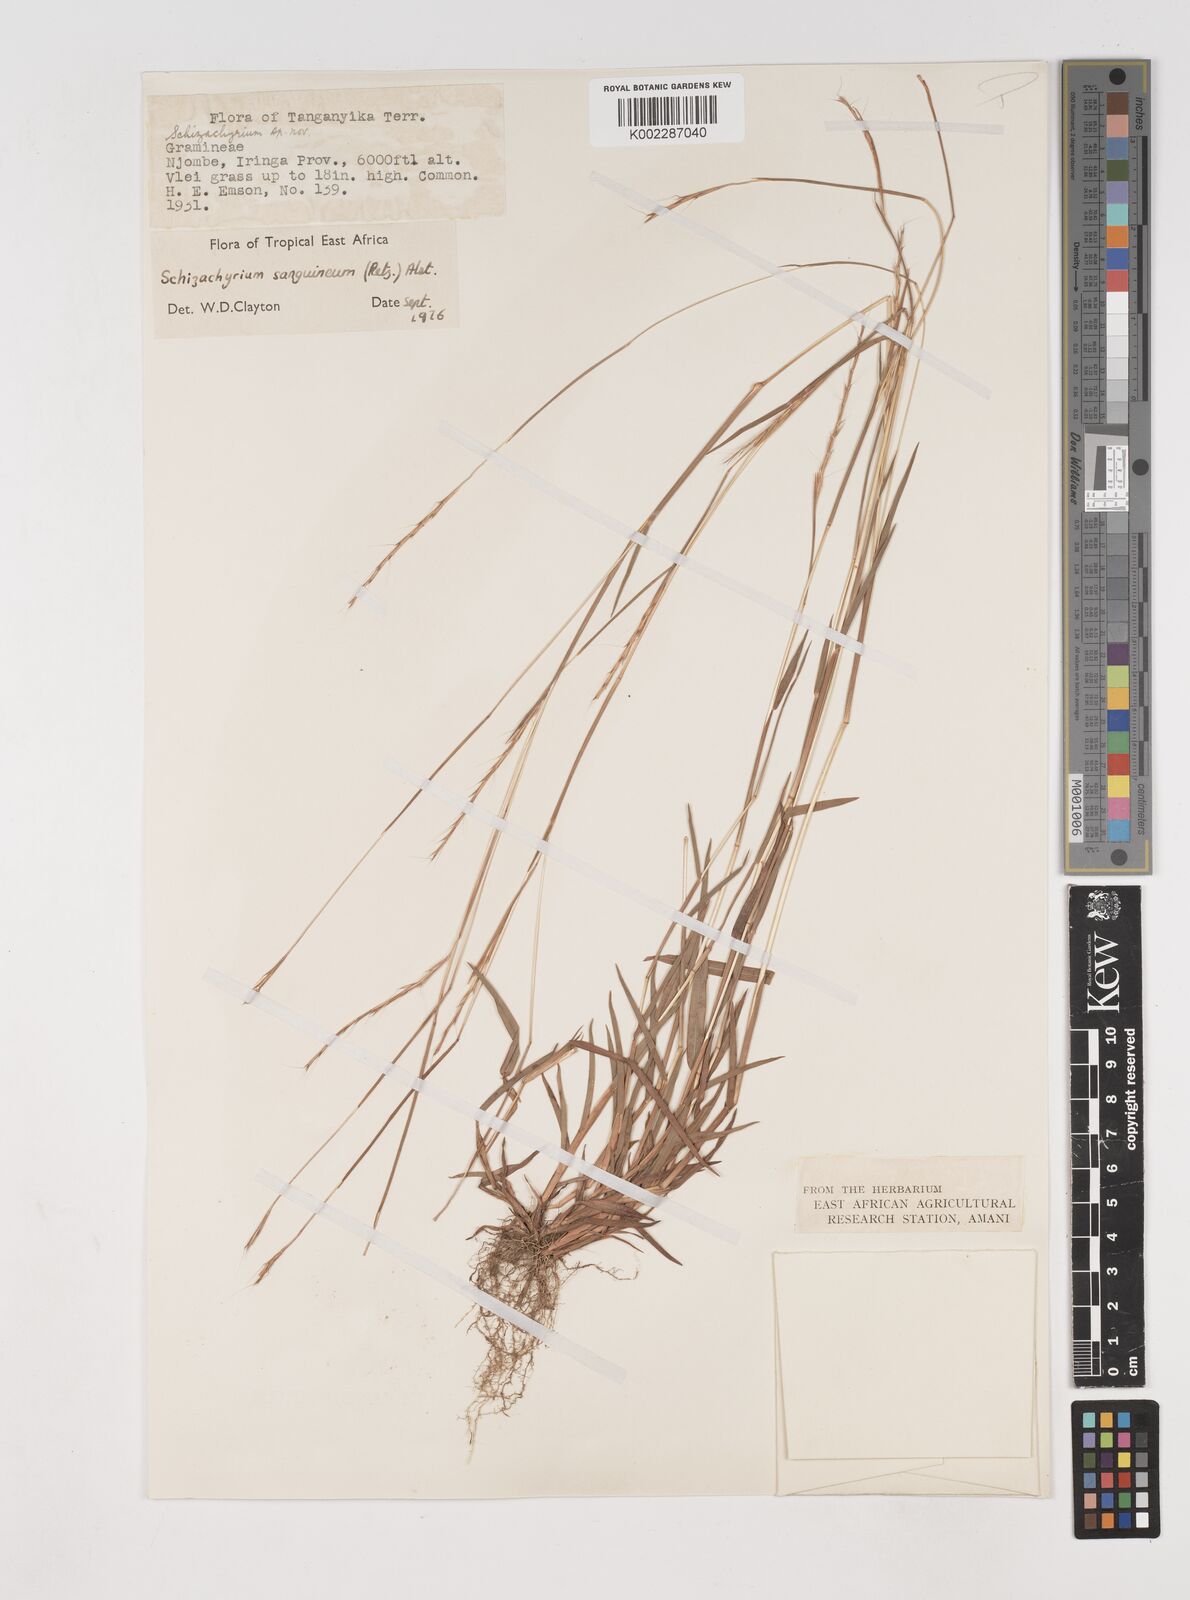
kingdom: Plantae
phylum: Tracheophyta
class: Liliopsida
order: Poales
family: Poaceae
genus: Schizachyrium
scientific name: Schizachyrium sanguineum
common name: Crimson bluestem
